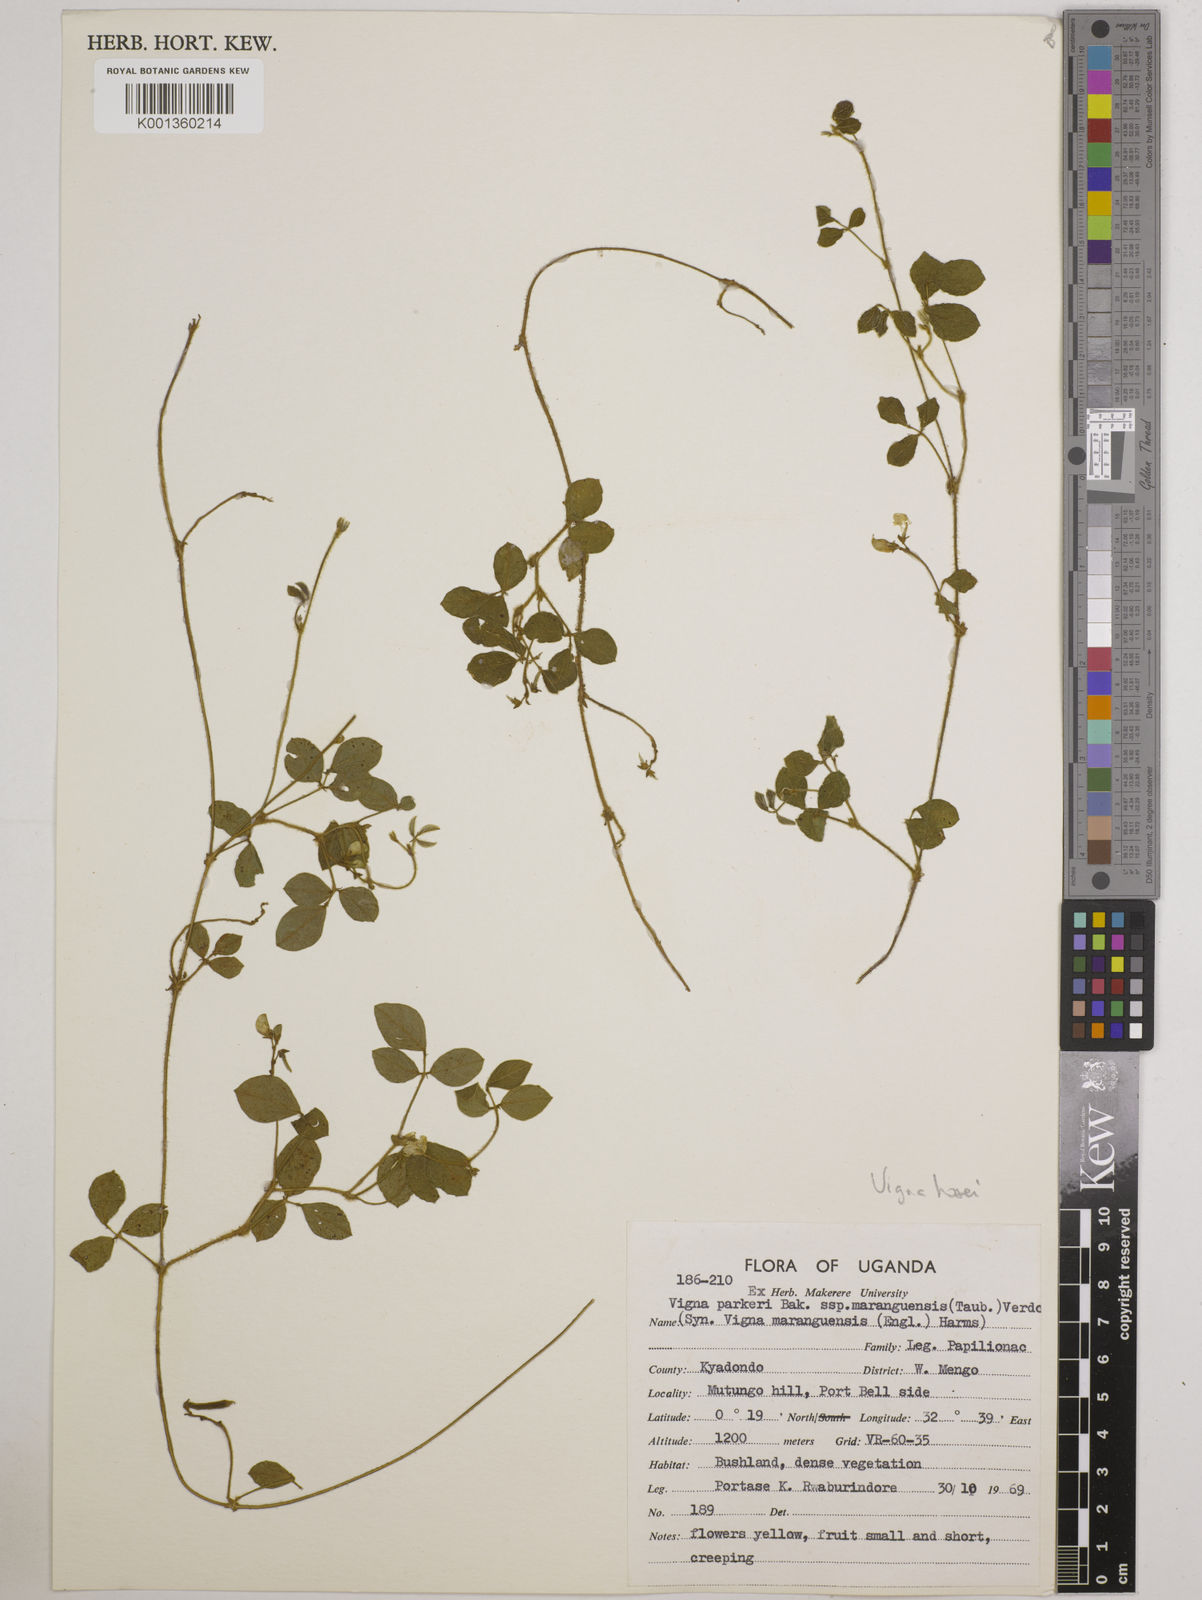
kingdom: Plantae
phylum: Tracheophyta
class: Magnoliopsida
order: Fabales
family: Fabaceae
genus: Vigna
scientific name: Vigna hosei
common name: Sarawak-bean
